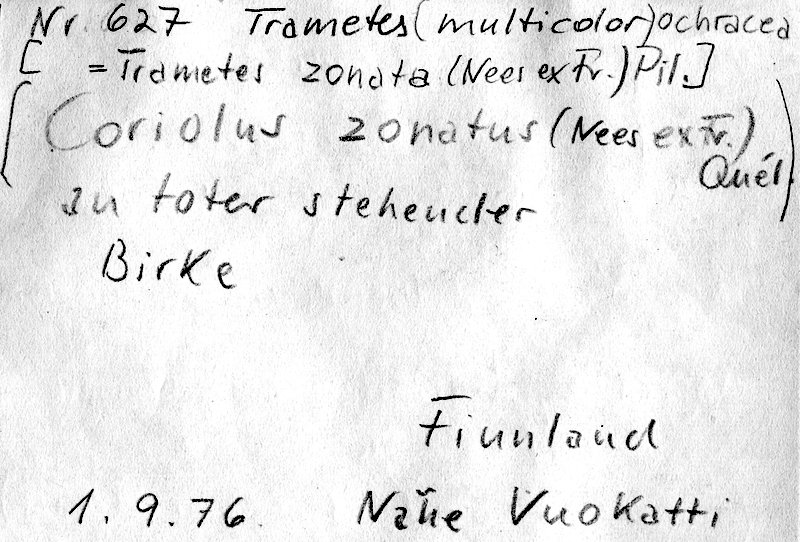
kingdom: Fungi
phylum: Basidiomycota
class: Agaricomycetes
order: Polyporales
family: Polyporaceae
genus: Trametes
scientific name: Trametes ochracea
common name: Ochre bracket
